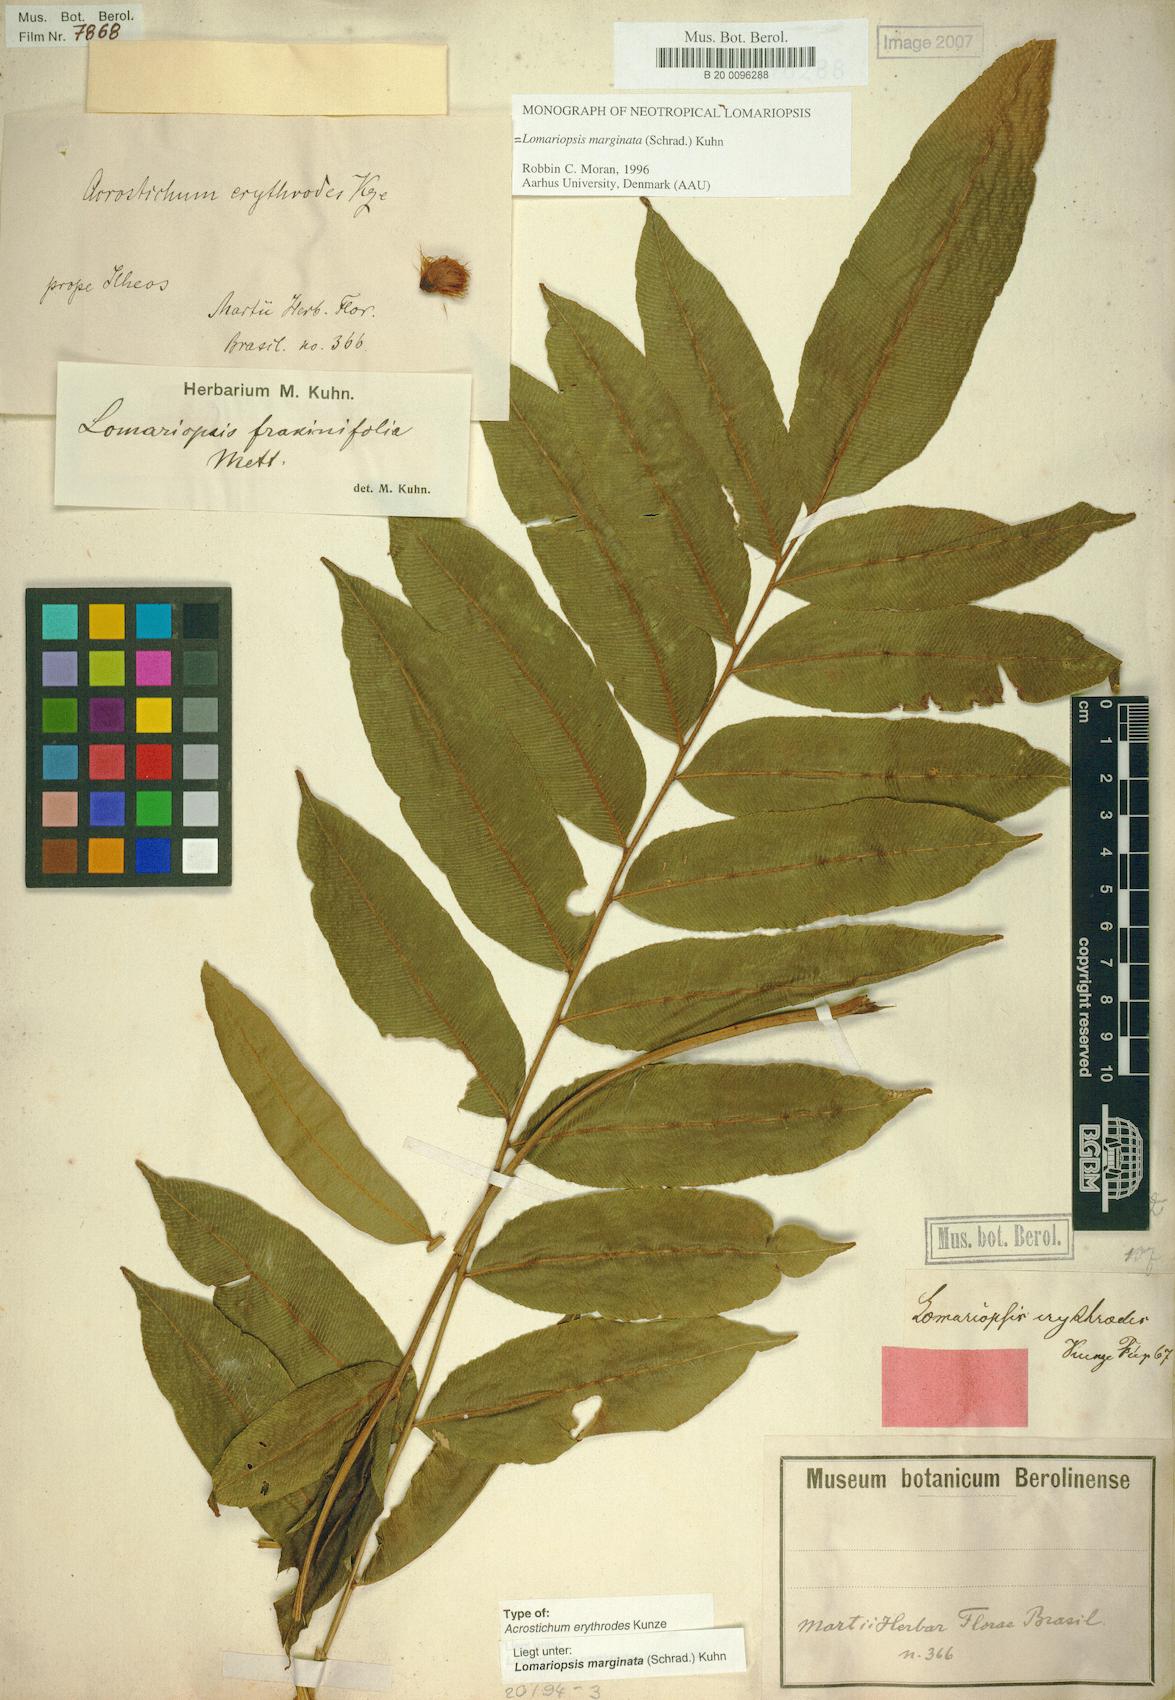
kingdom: Plantae
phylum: Tracheophyta
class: Polypodiopsida
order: Polypodiales
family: Lomariopsidaceae
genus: Lomariopsis
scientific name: Lomariopsis marginata
